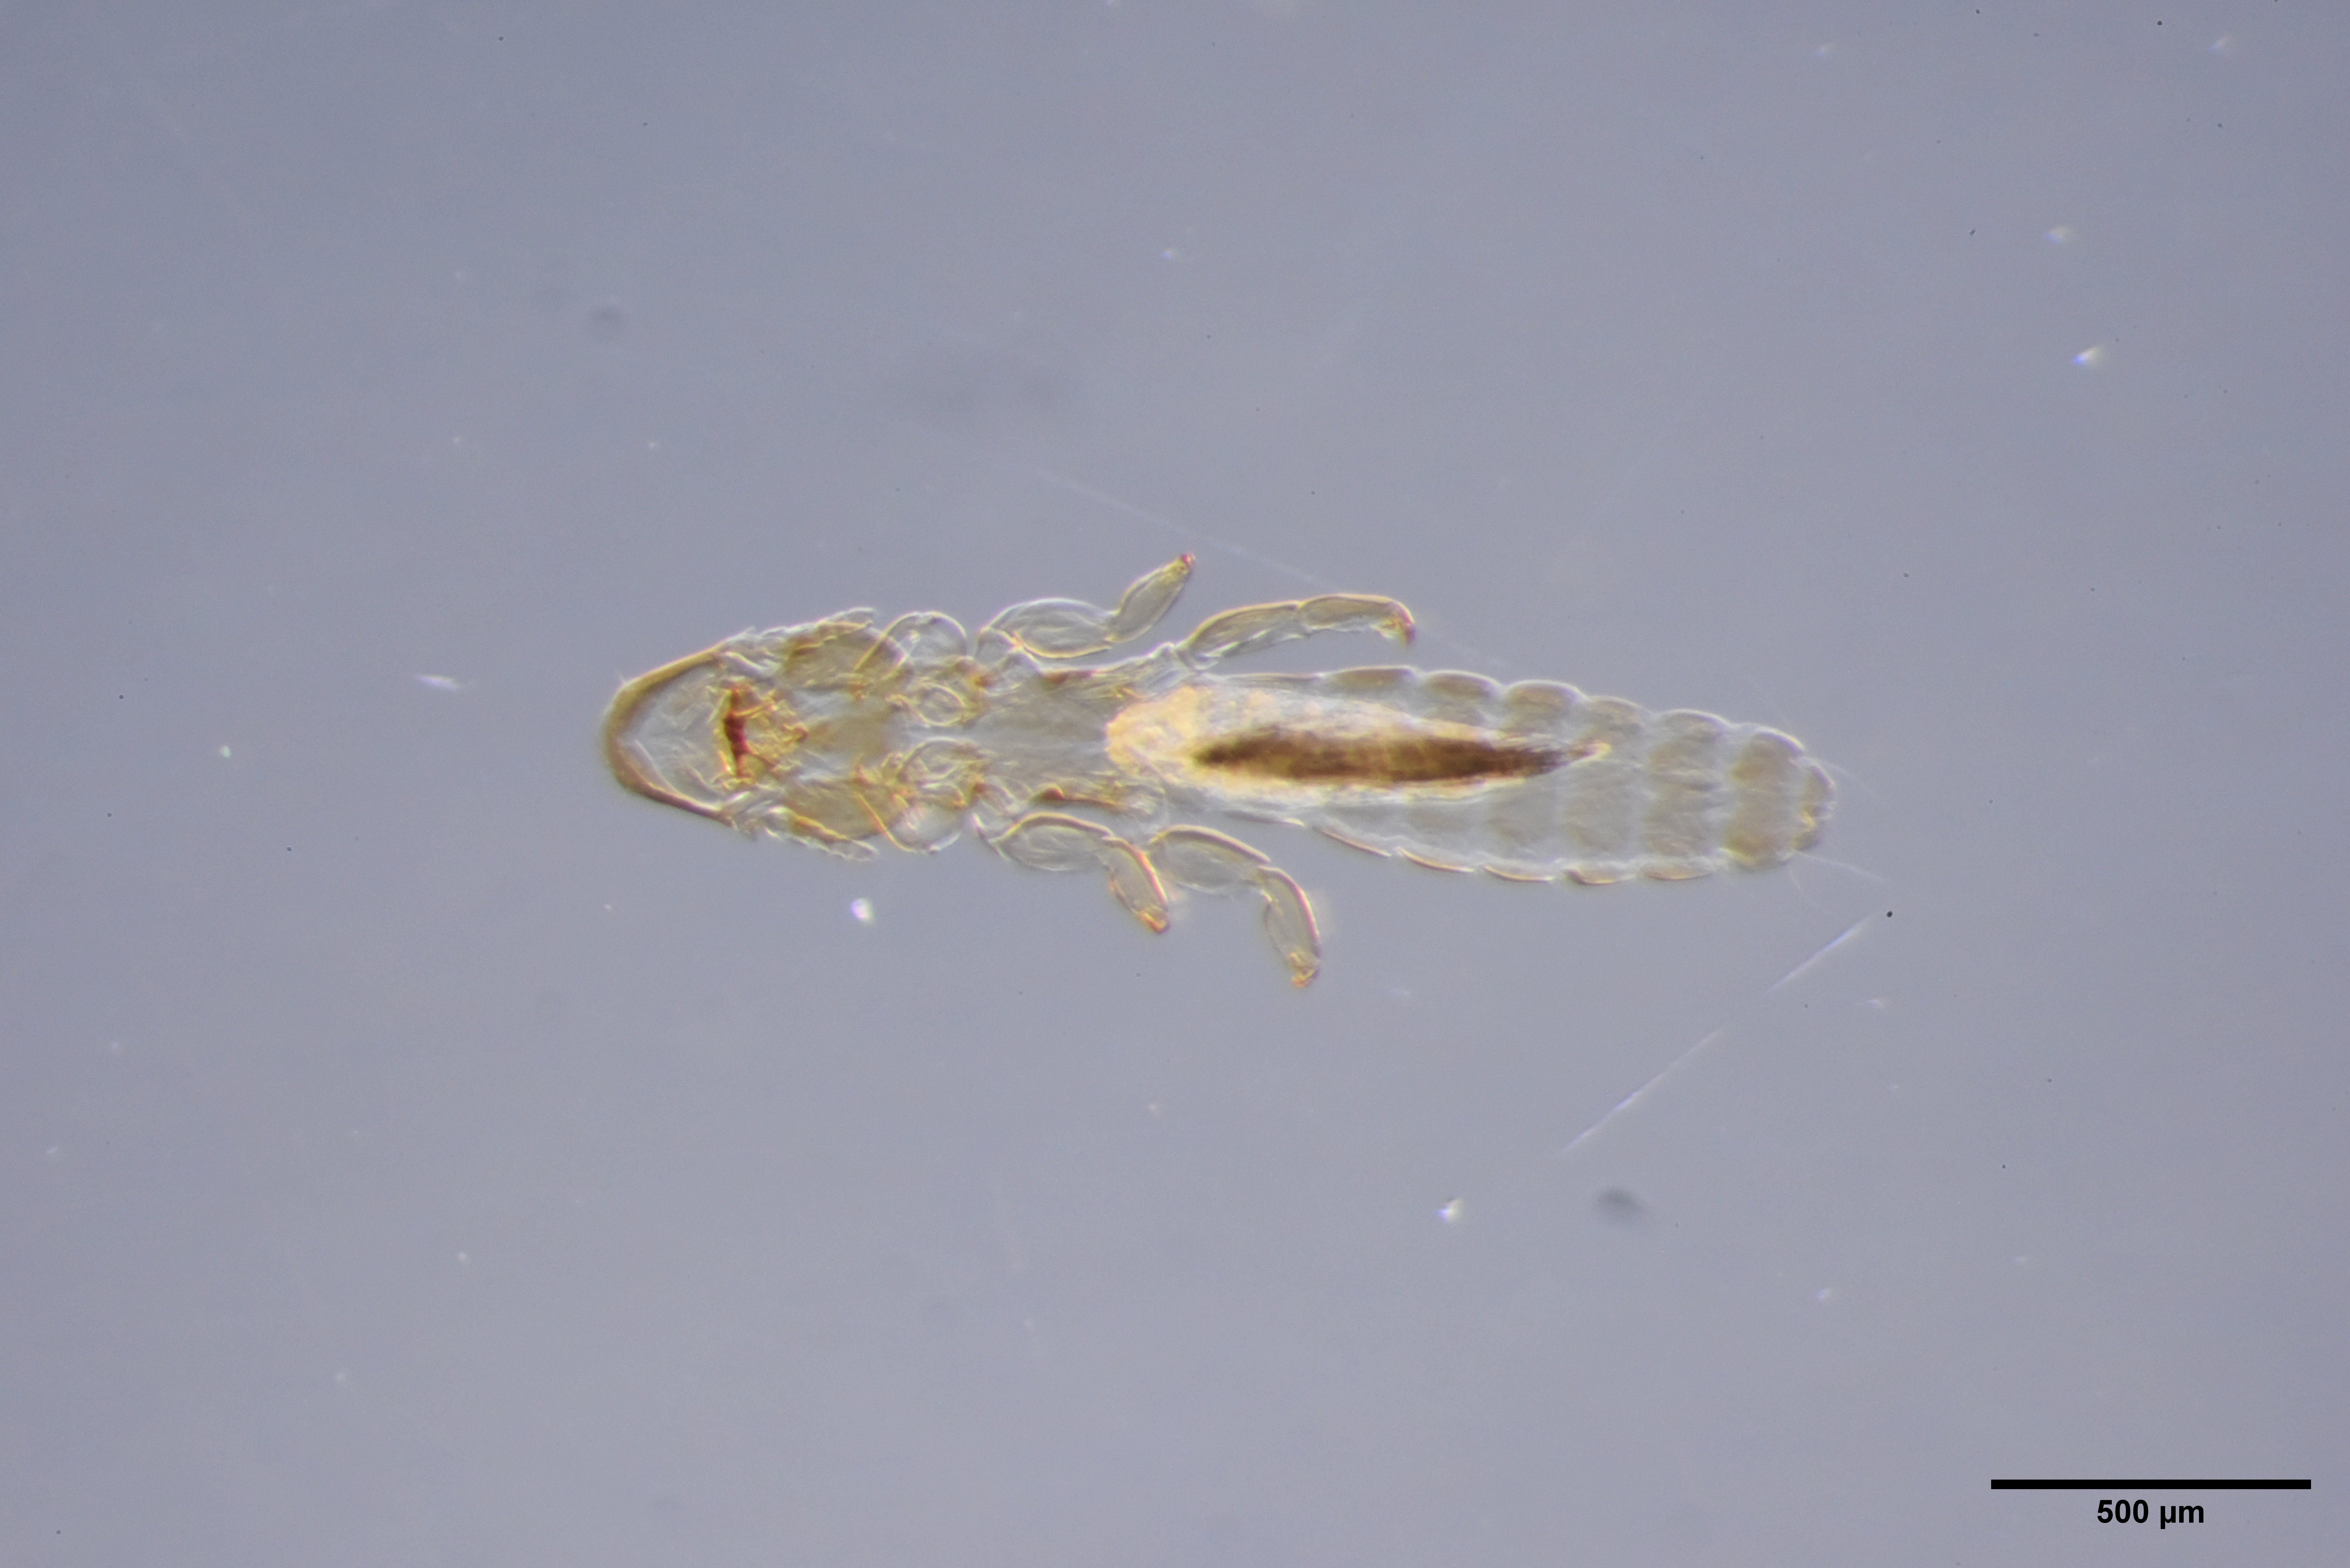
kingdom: Animalia
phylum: Arthropoda
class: Insecta
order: Psocodea
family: Philopteridae
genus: Anaticola
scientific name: Anaticola crassicorne
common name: Louse
